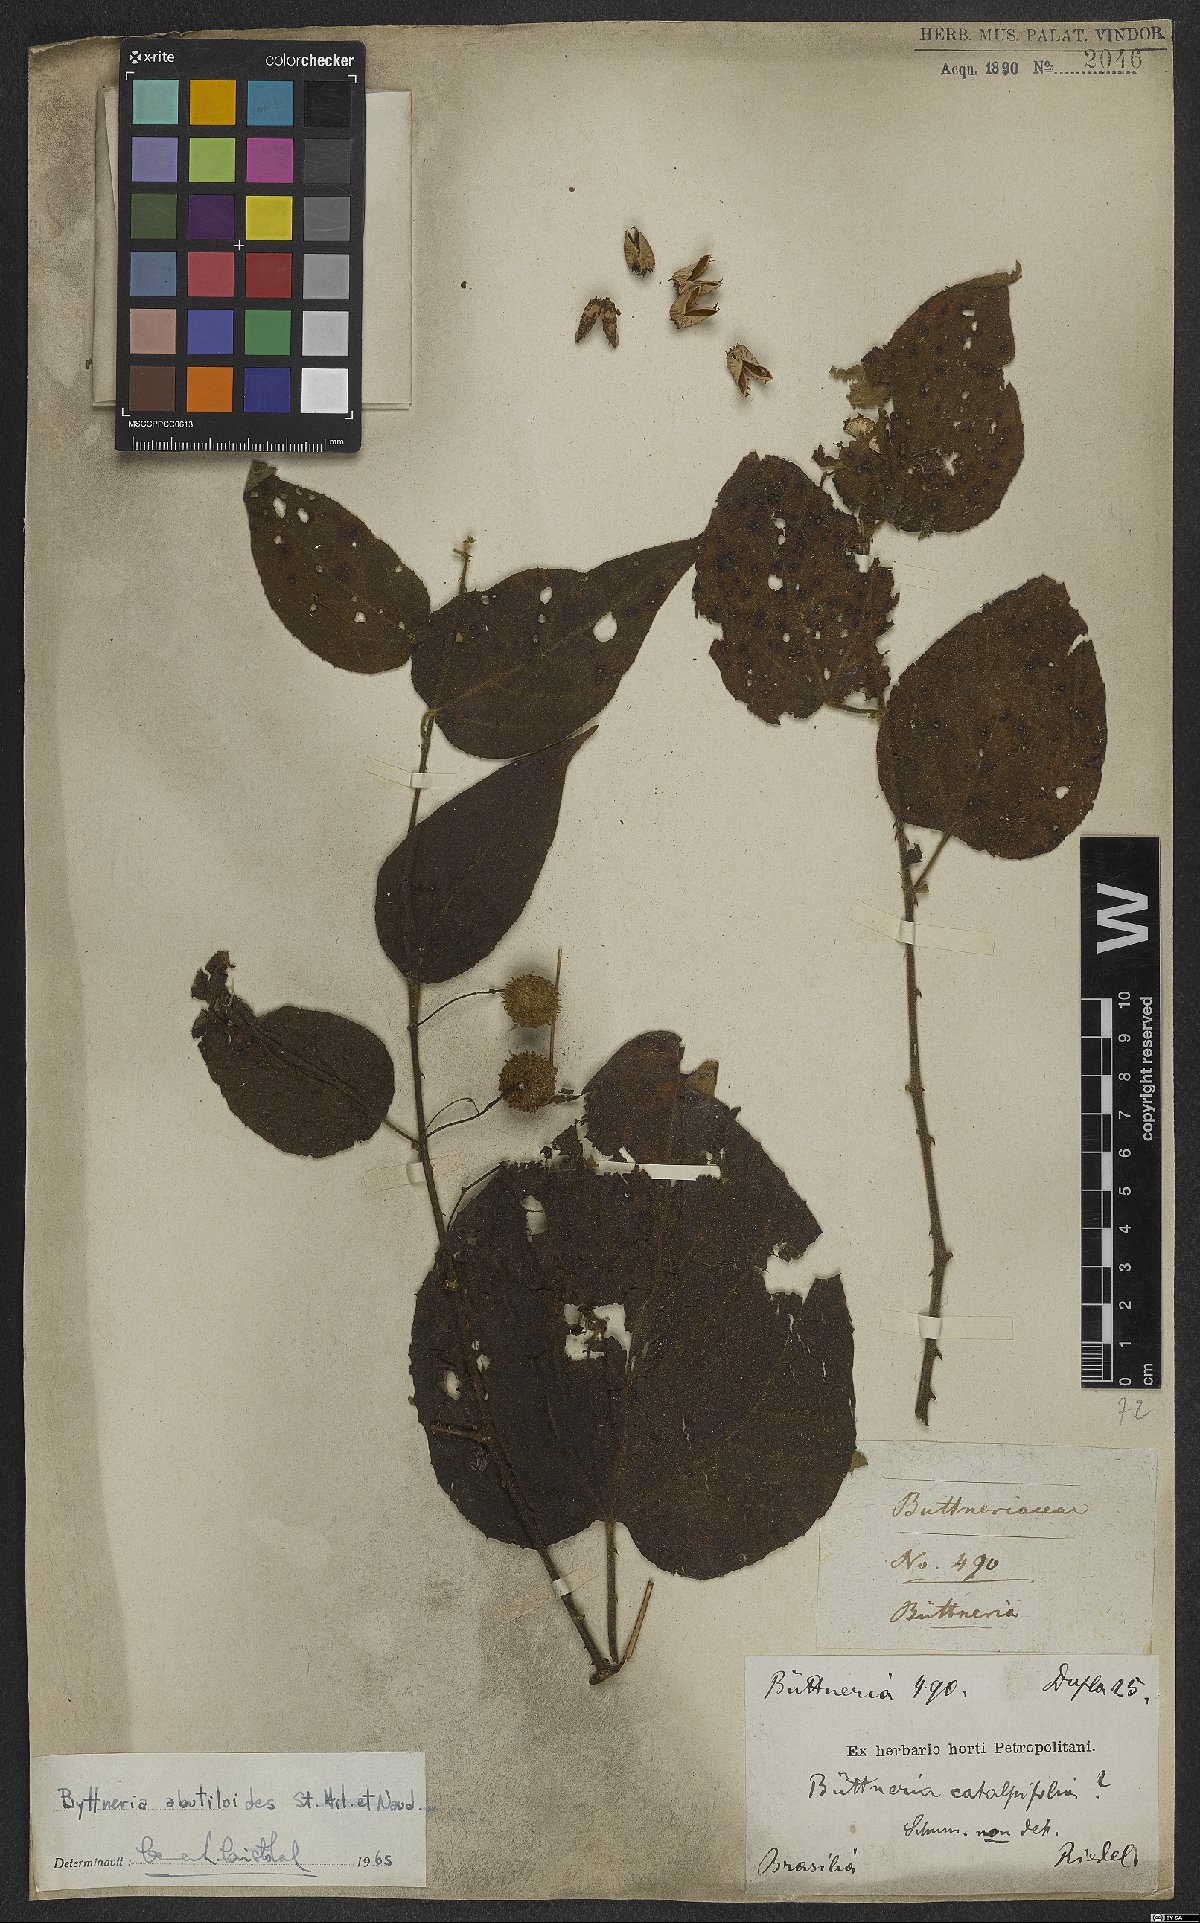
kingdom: Plantae
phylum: Tracheophyta
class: Magnoliopsida
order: Malvales
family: Malvaceae
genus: Byttneria
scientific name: Byttneria abutiloides
